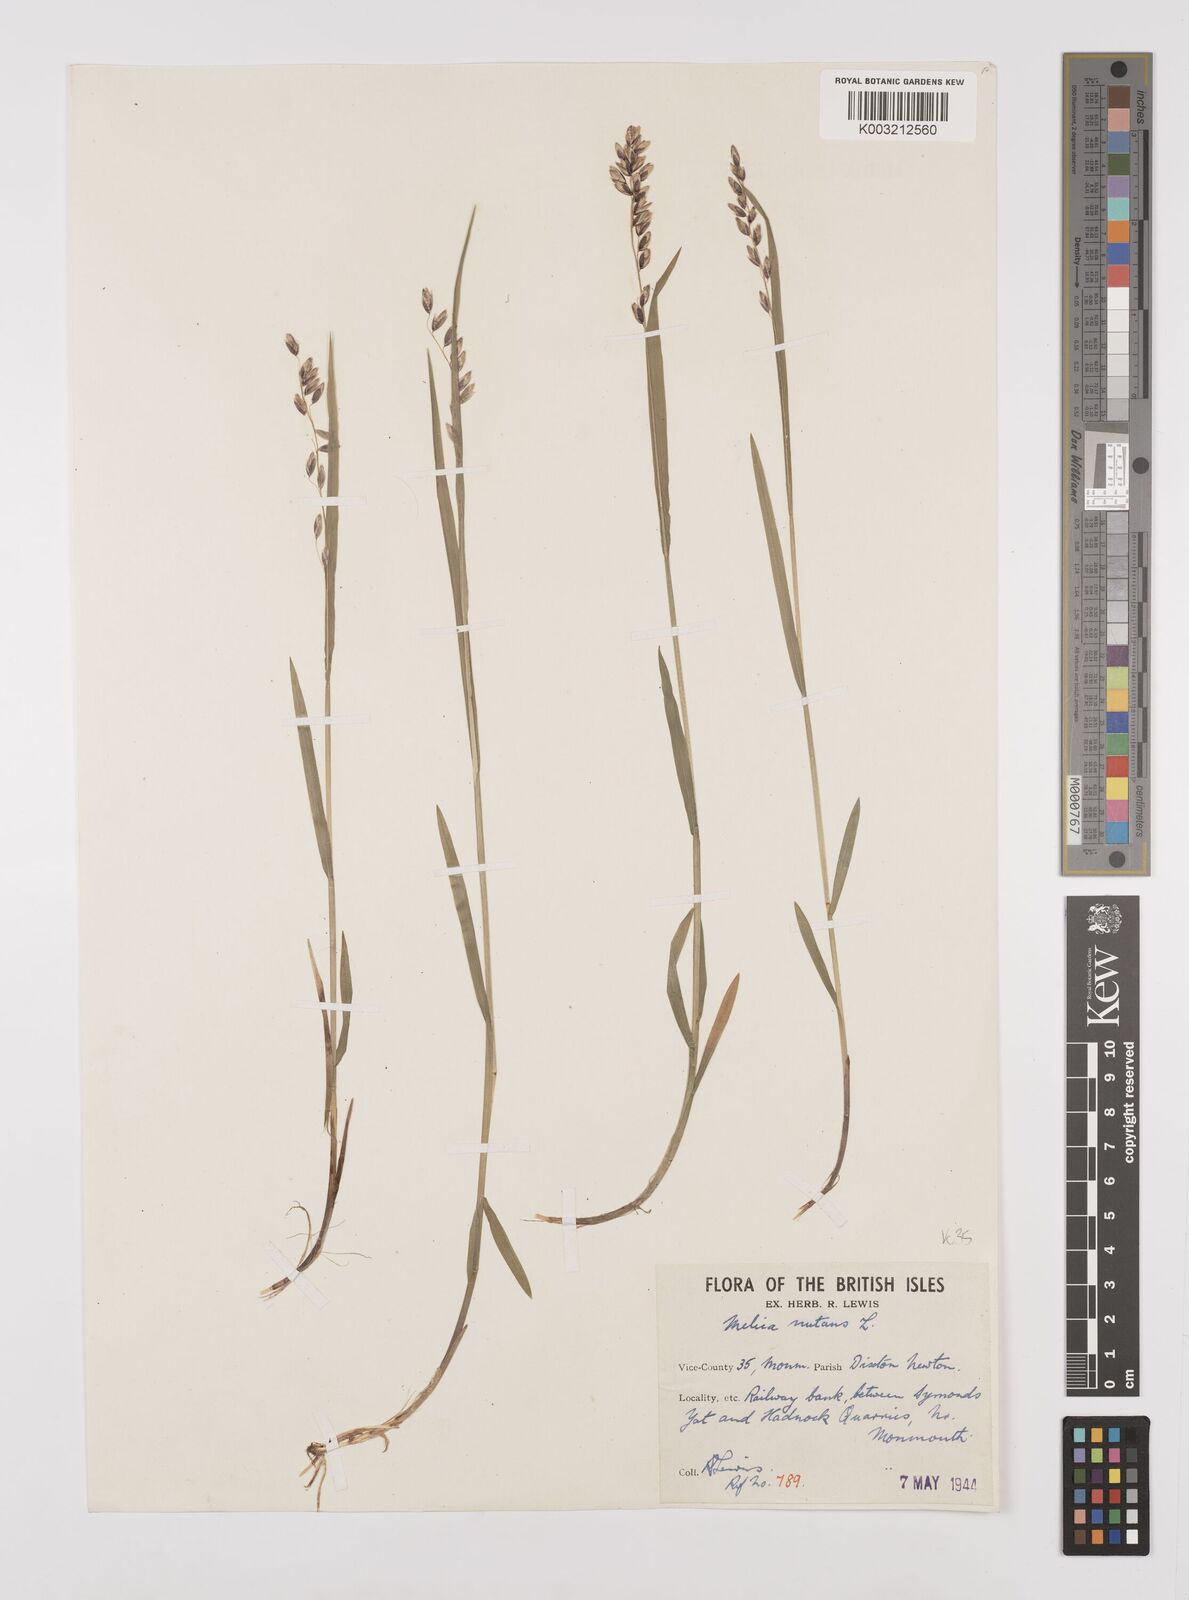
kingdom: Plantae
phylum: Tracheophyta
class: Liliopsida
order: Poales
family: Poaceae
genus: Melica
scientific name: Melica
